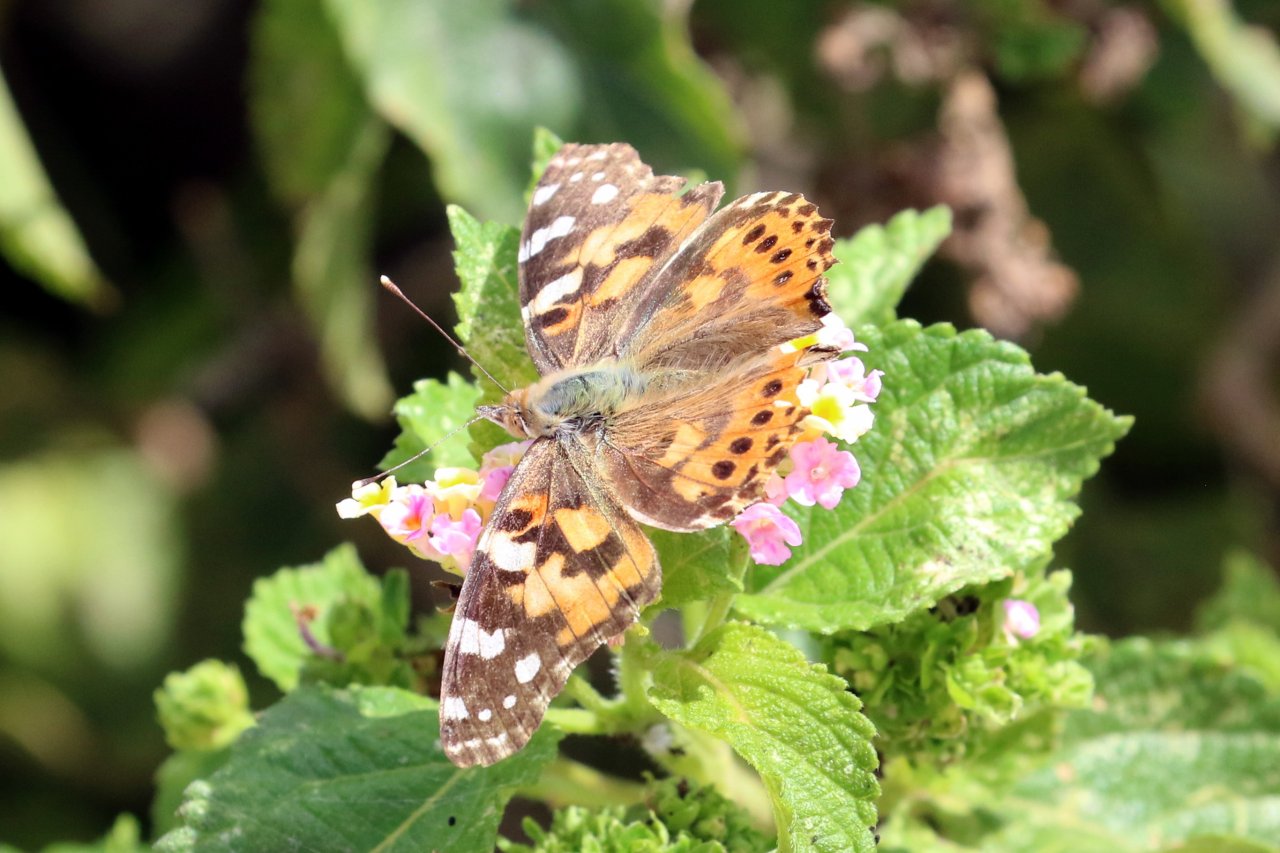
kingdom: Animalia
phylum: Arthropoda
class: Insecta
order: Lepidoptera
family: Nymphalidae
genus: Vanessa
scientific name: Vanessa cardui
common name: Painted Lady
